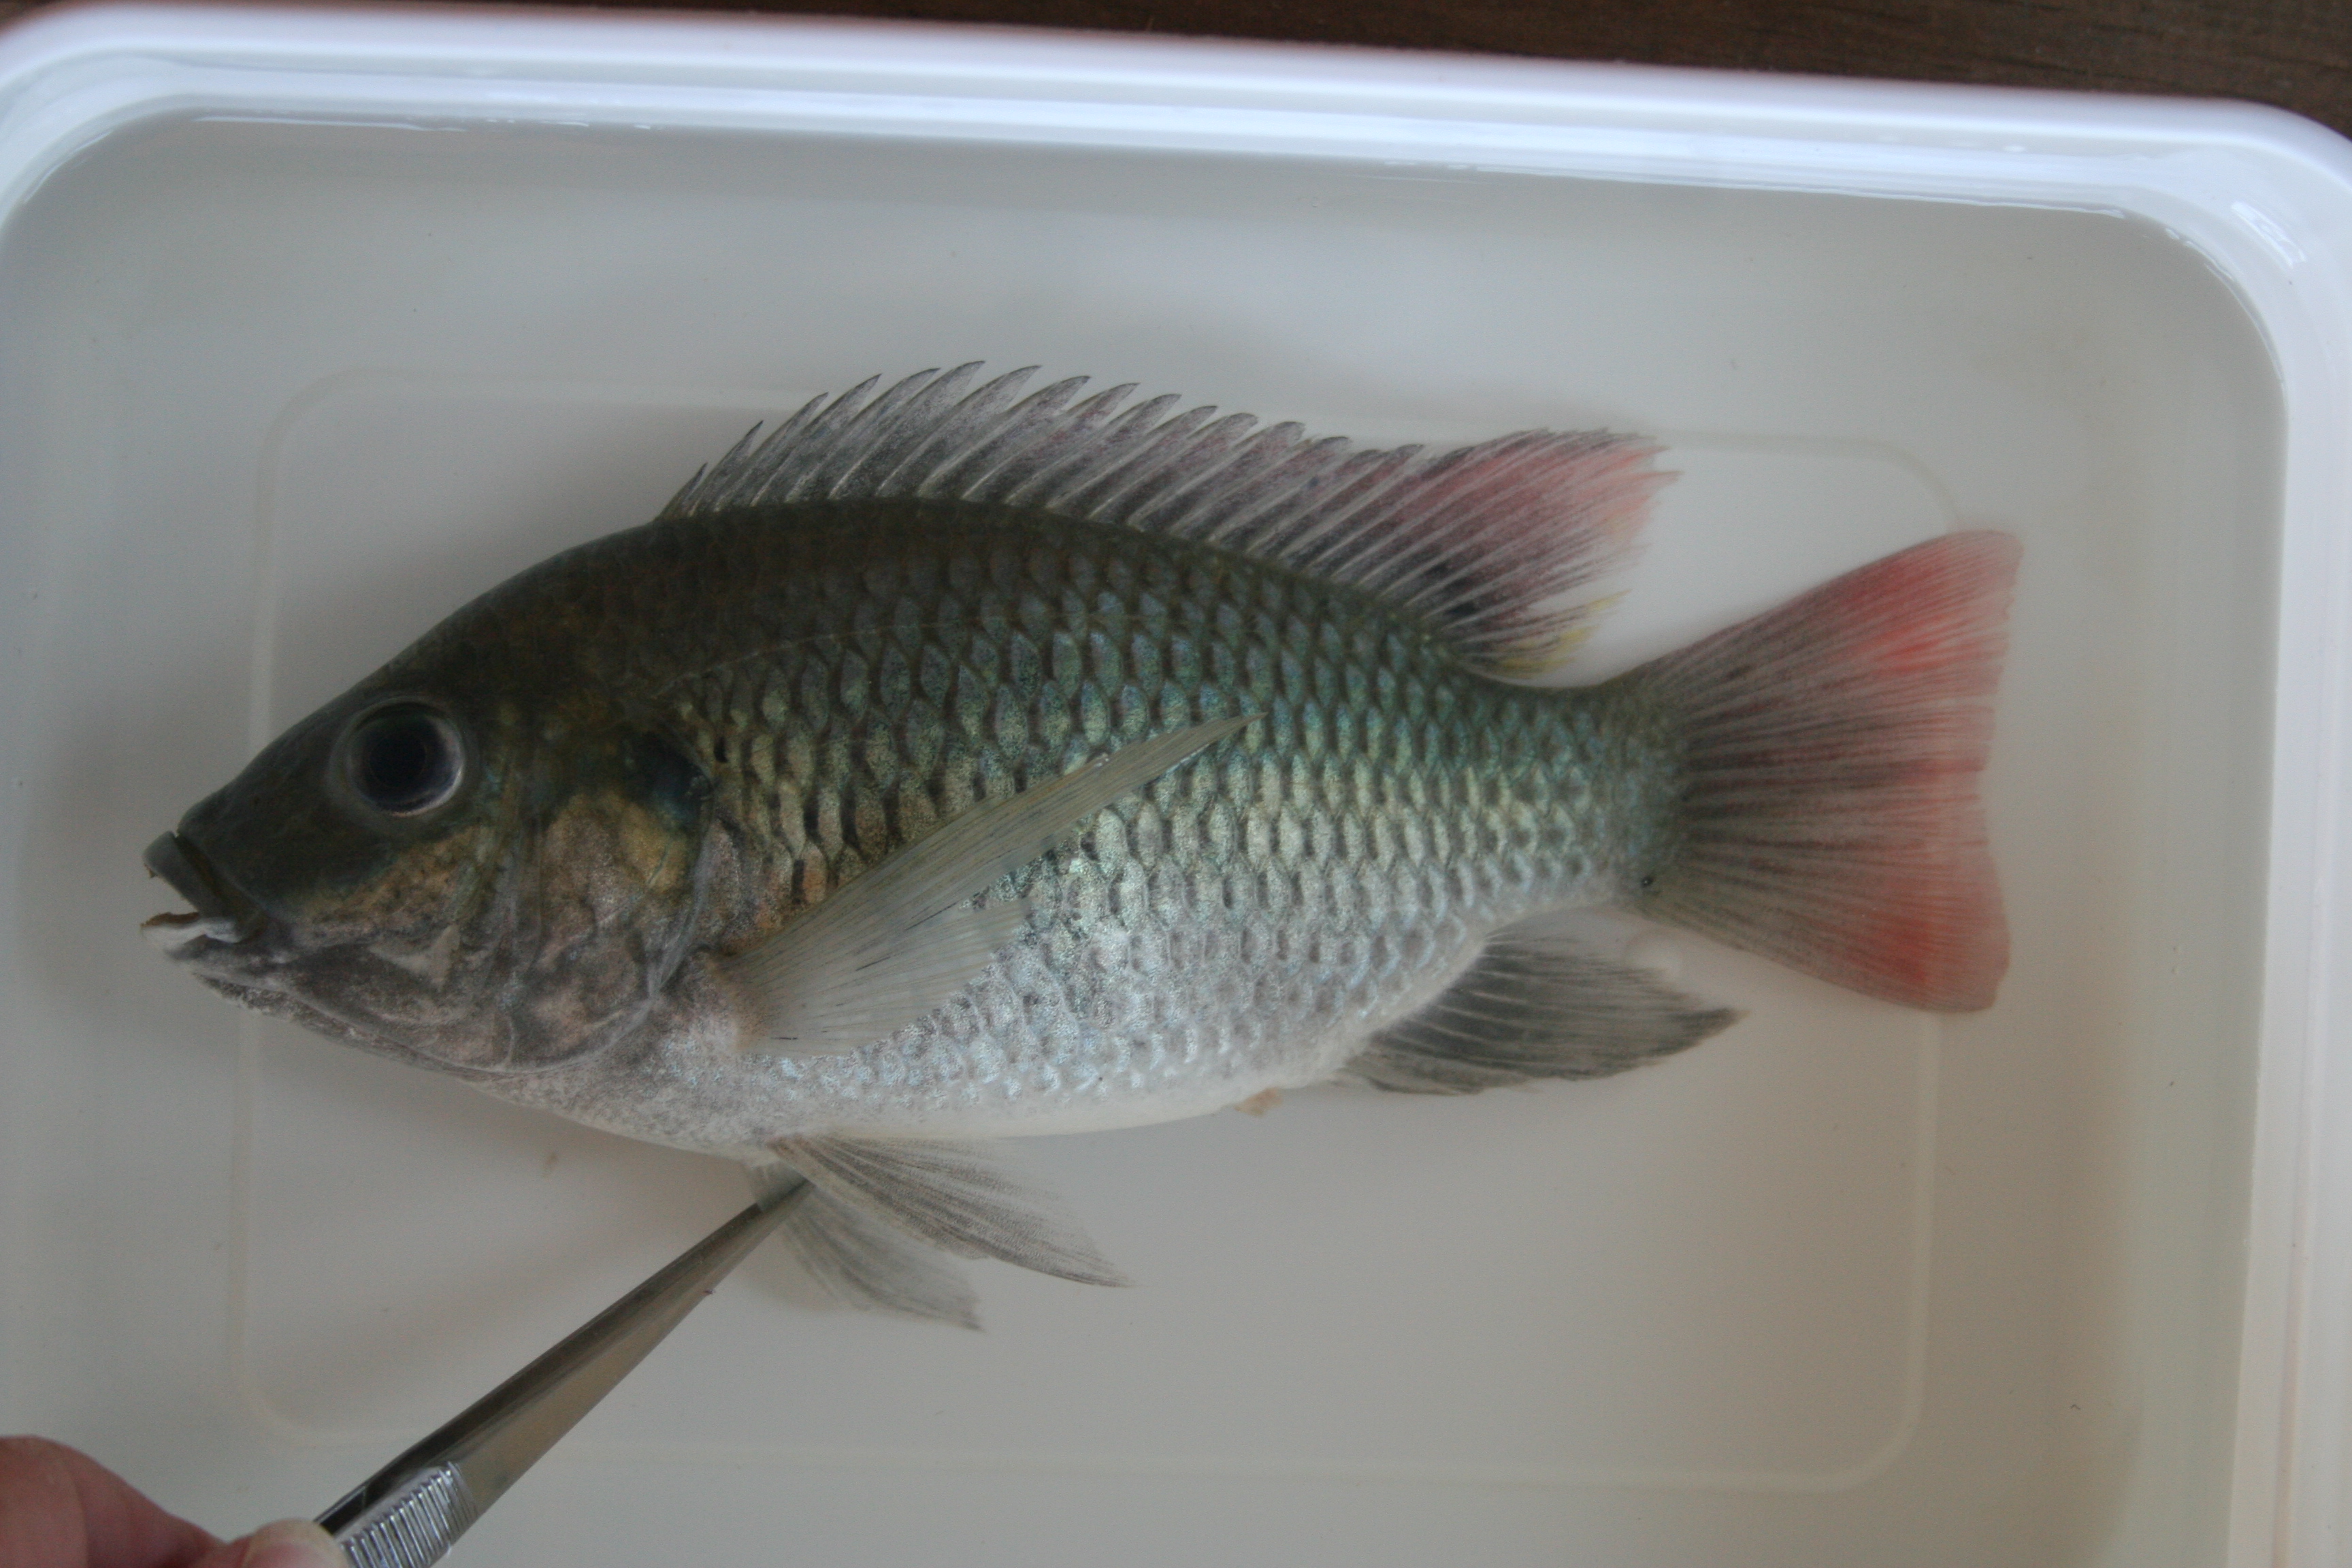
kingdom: Animalia
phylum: Chordata
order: Perciformes
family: Cichlidae
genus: Tilapia
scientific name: Tilapia
